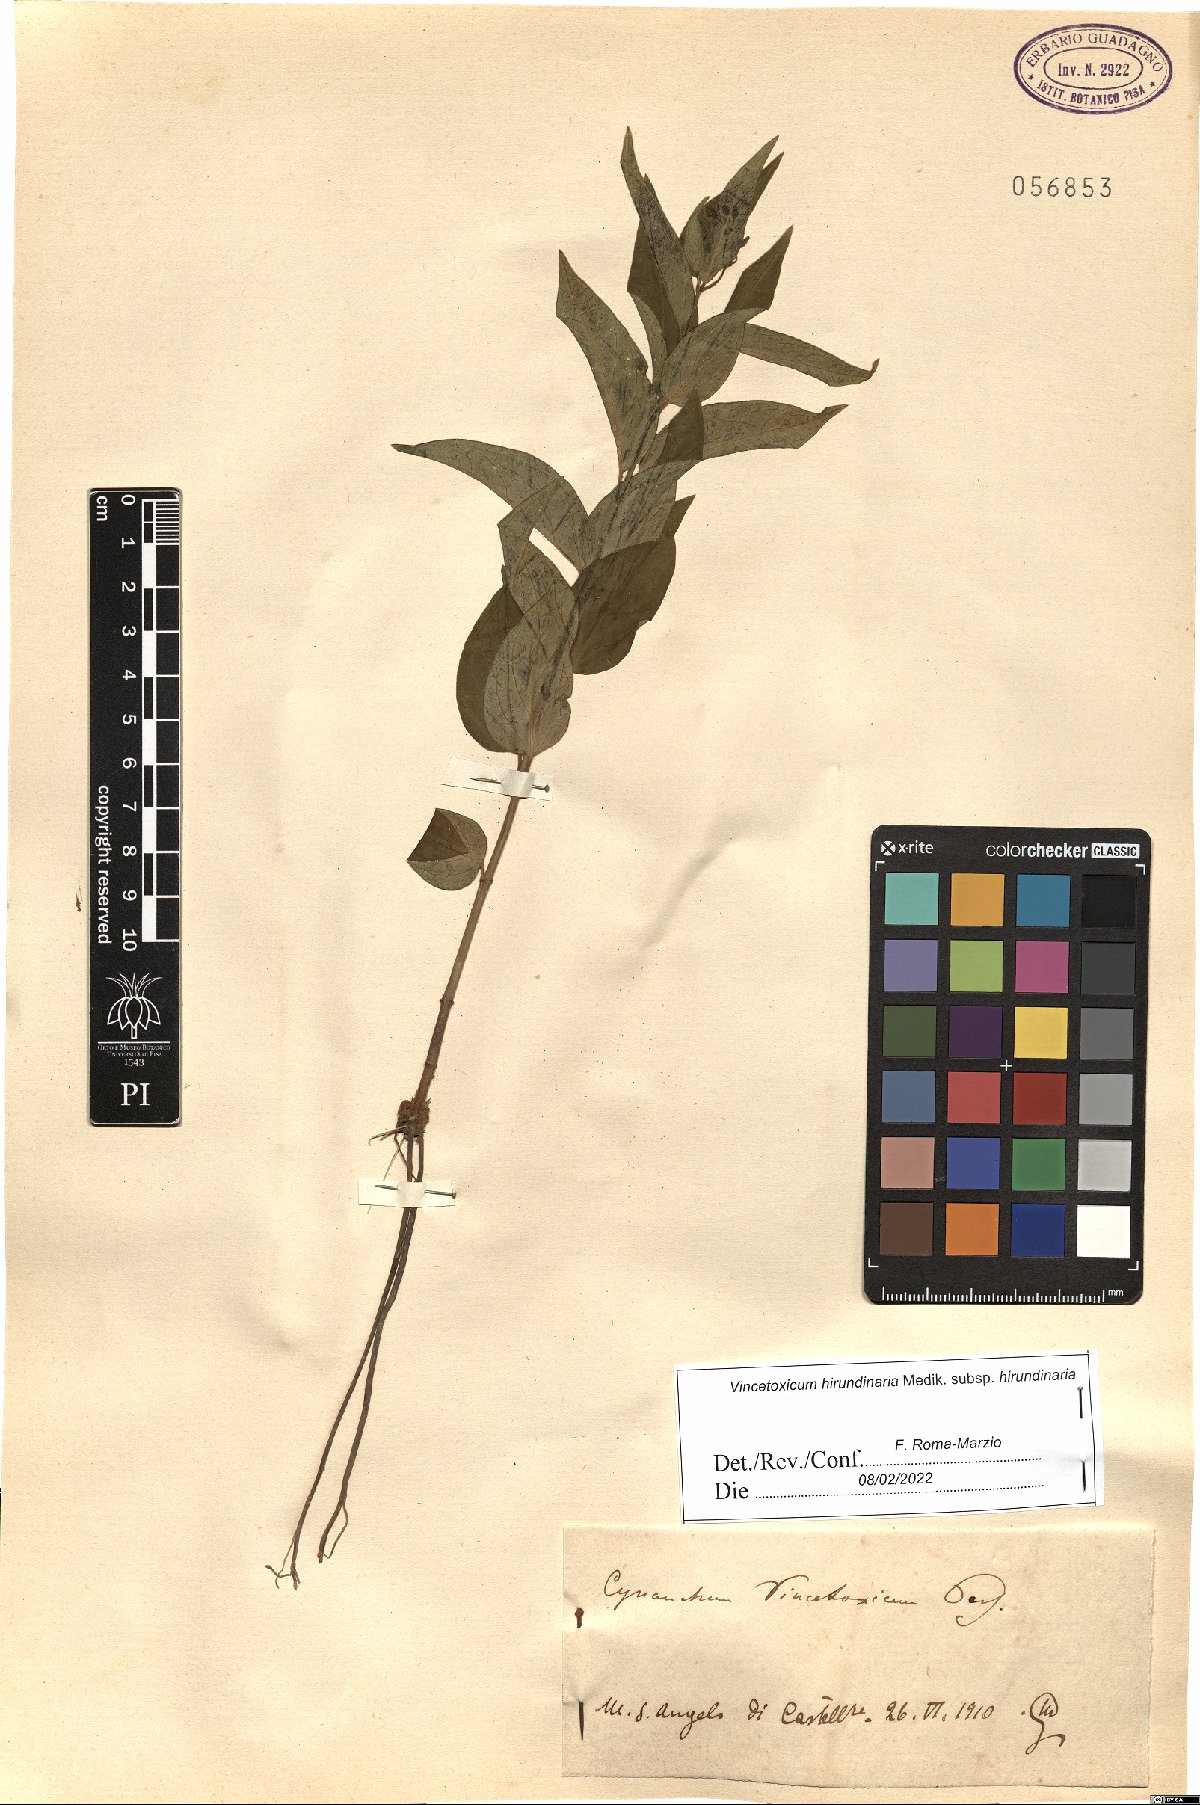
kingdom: Plantae
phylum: Tracheophyta
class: Magnoliopsida
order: Gentianales
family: Apocynaceae
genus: Vincetoxicum
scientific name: Vincetoxicum hirundinaria
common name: White swallowwort
